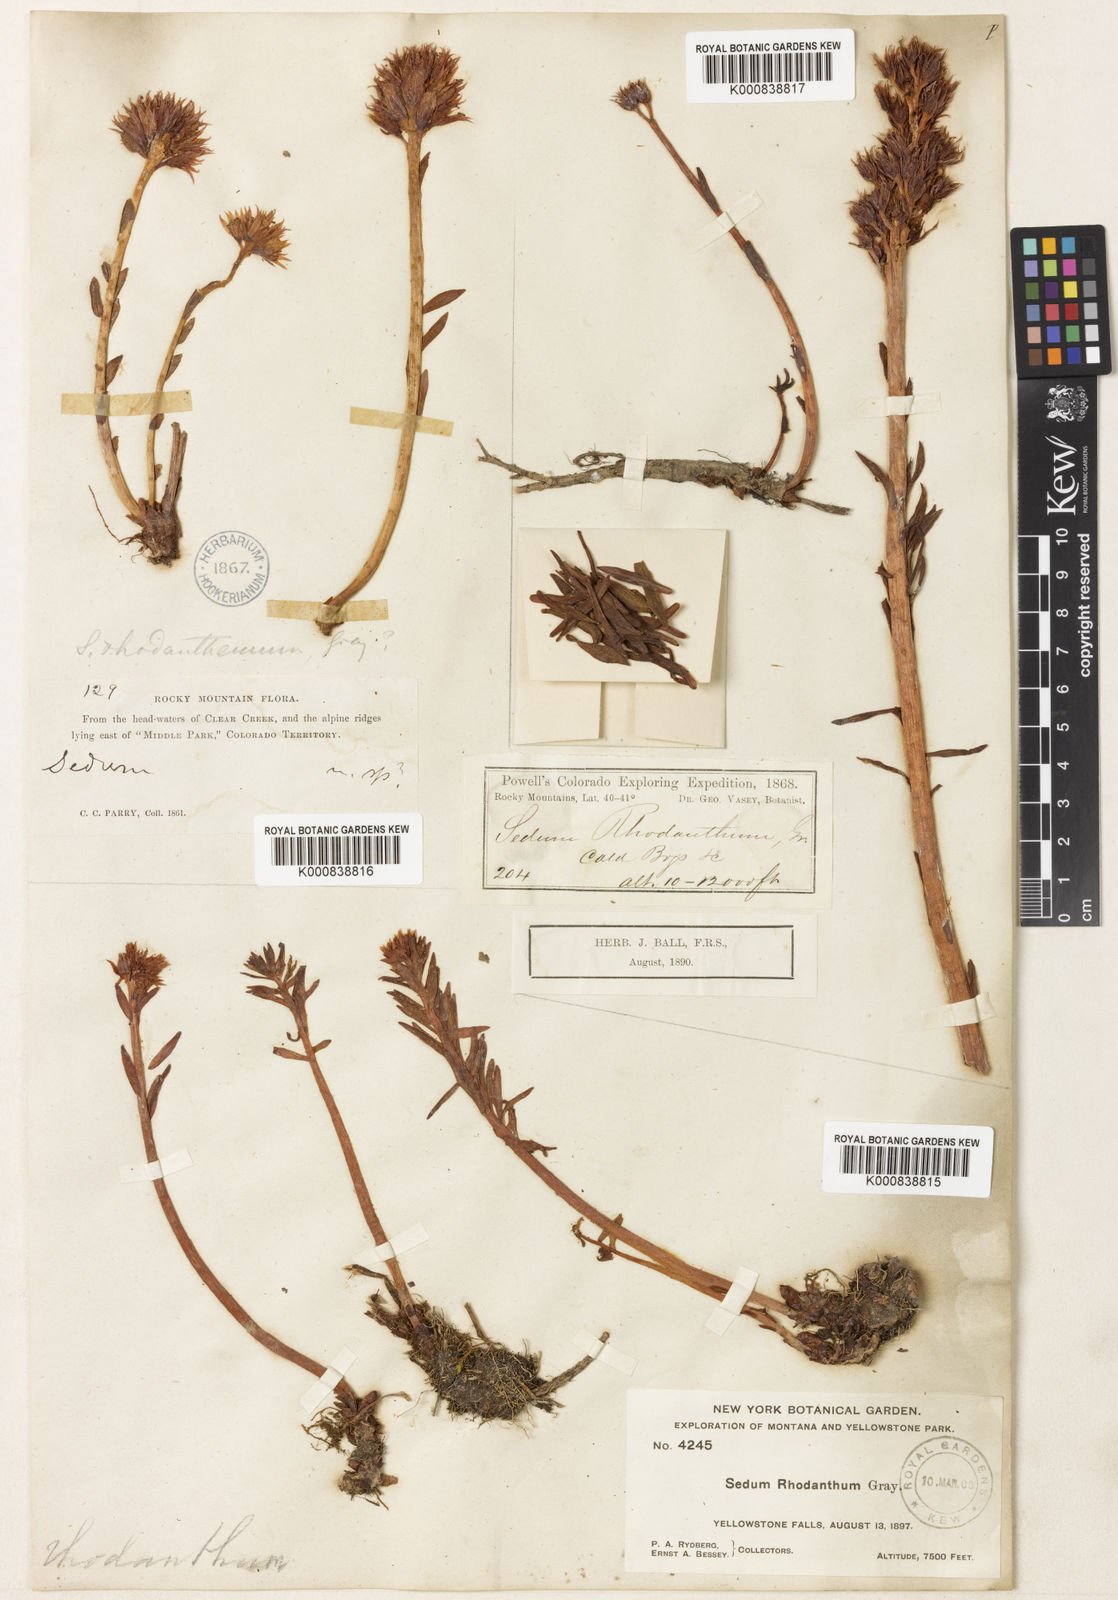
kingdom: Plantae
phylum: Tracheophyta
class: Magnoliopsida
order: Saxifragales
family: Crassulaceae
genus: Rhodiola
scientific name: Rhodiola rhodantha
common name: Red orpine
